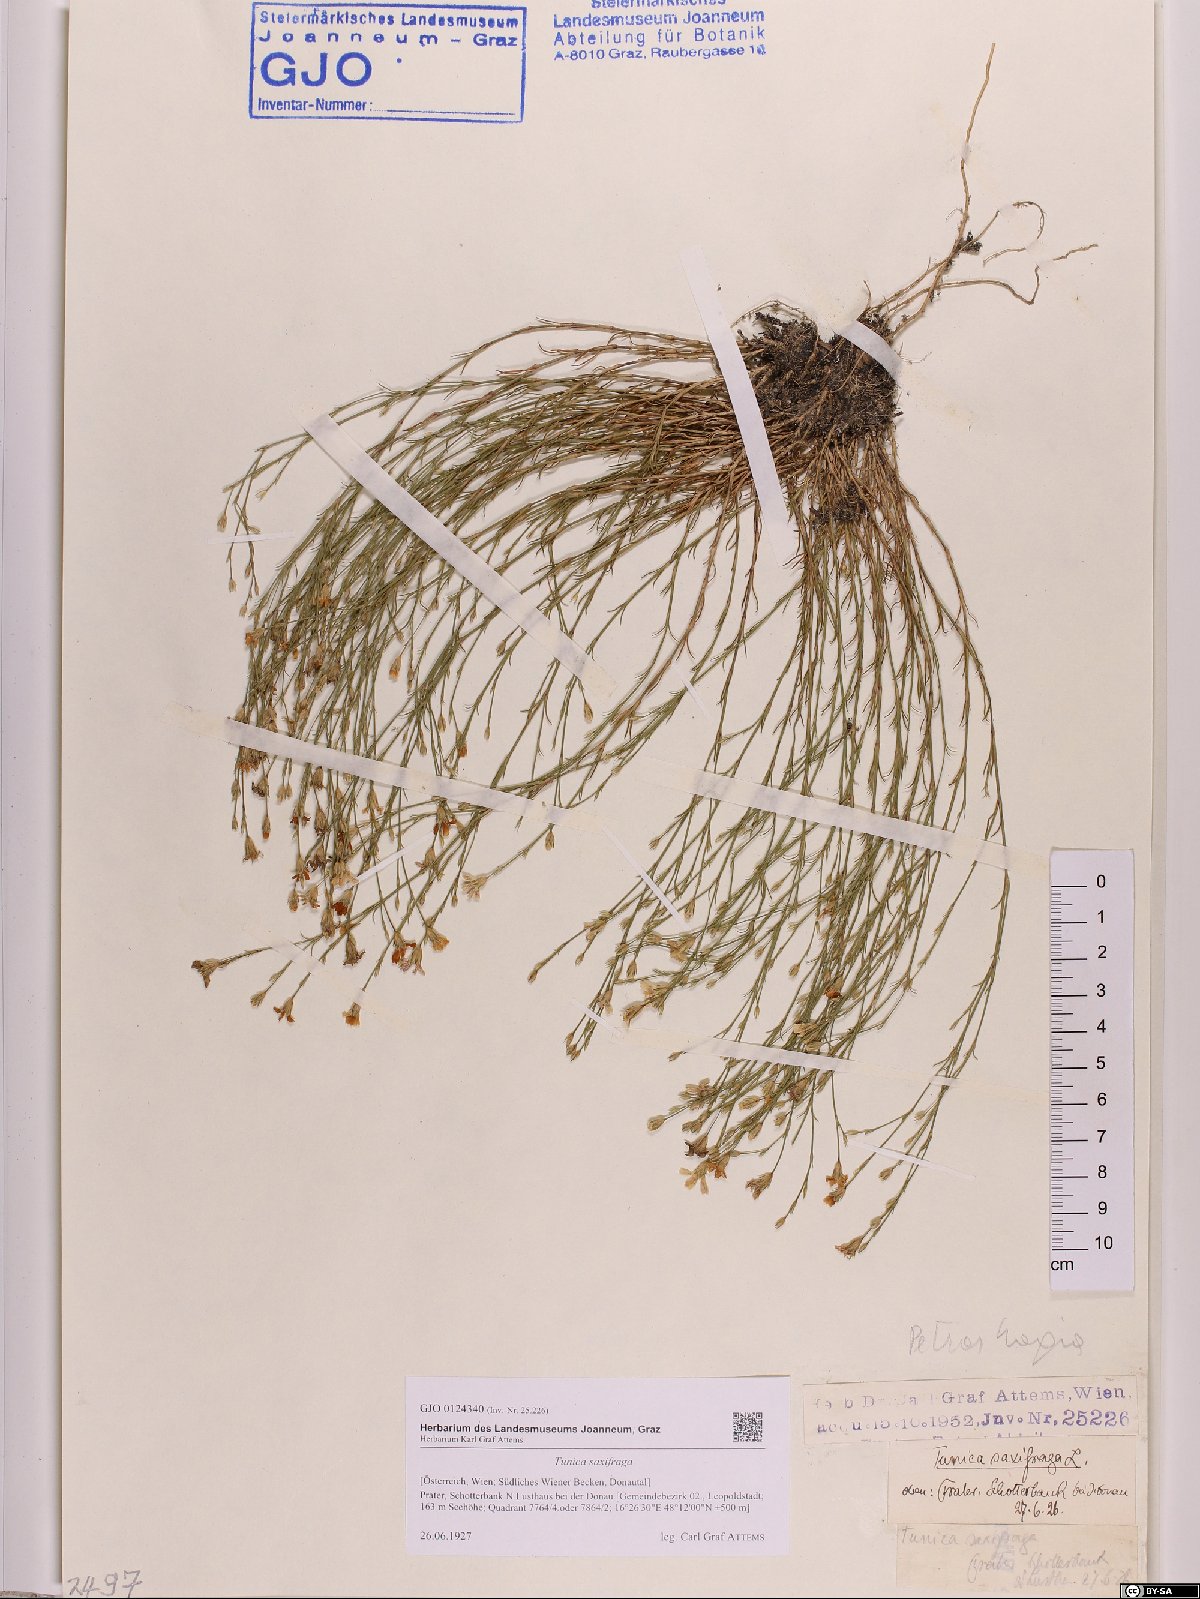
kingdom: Plantae
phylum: Tracheophyta
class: Magnoliopsida
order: Caryophyllales
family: Caryophyllaceae
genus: Petrorhagia
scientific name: Petrorhagia saxifraga
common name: Tunicflower
